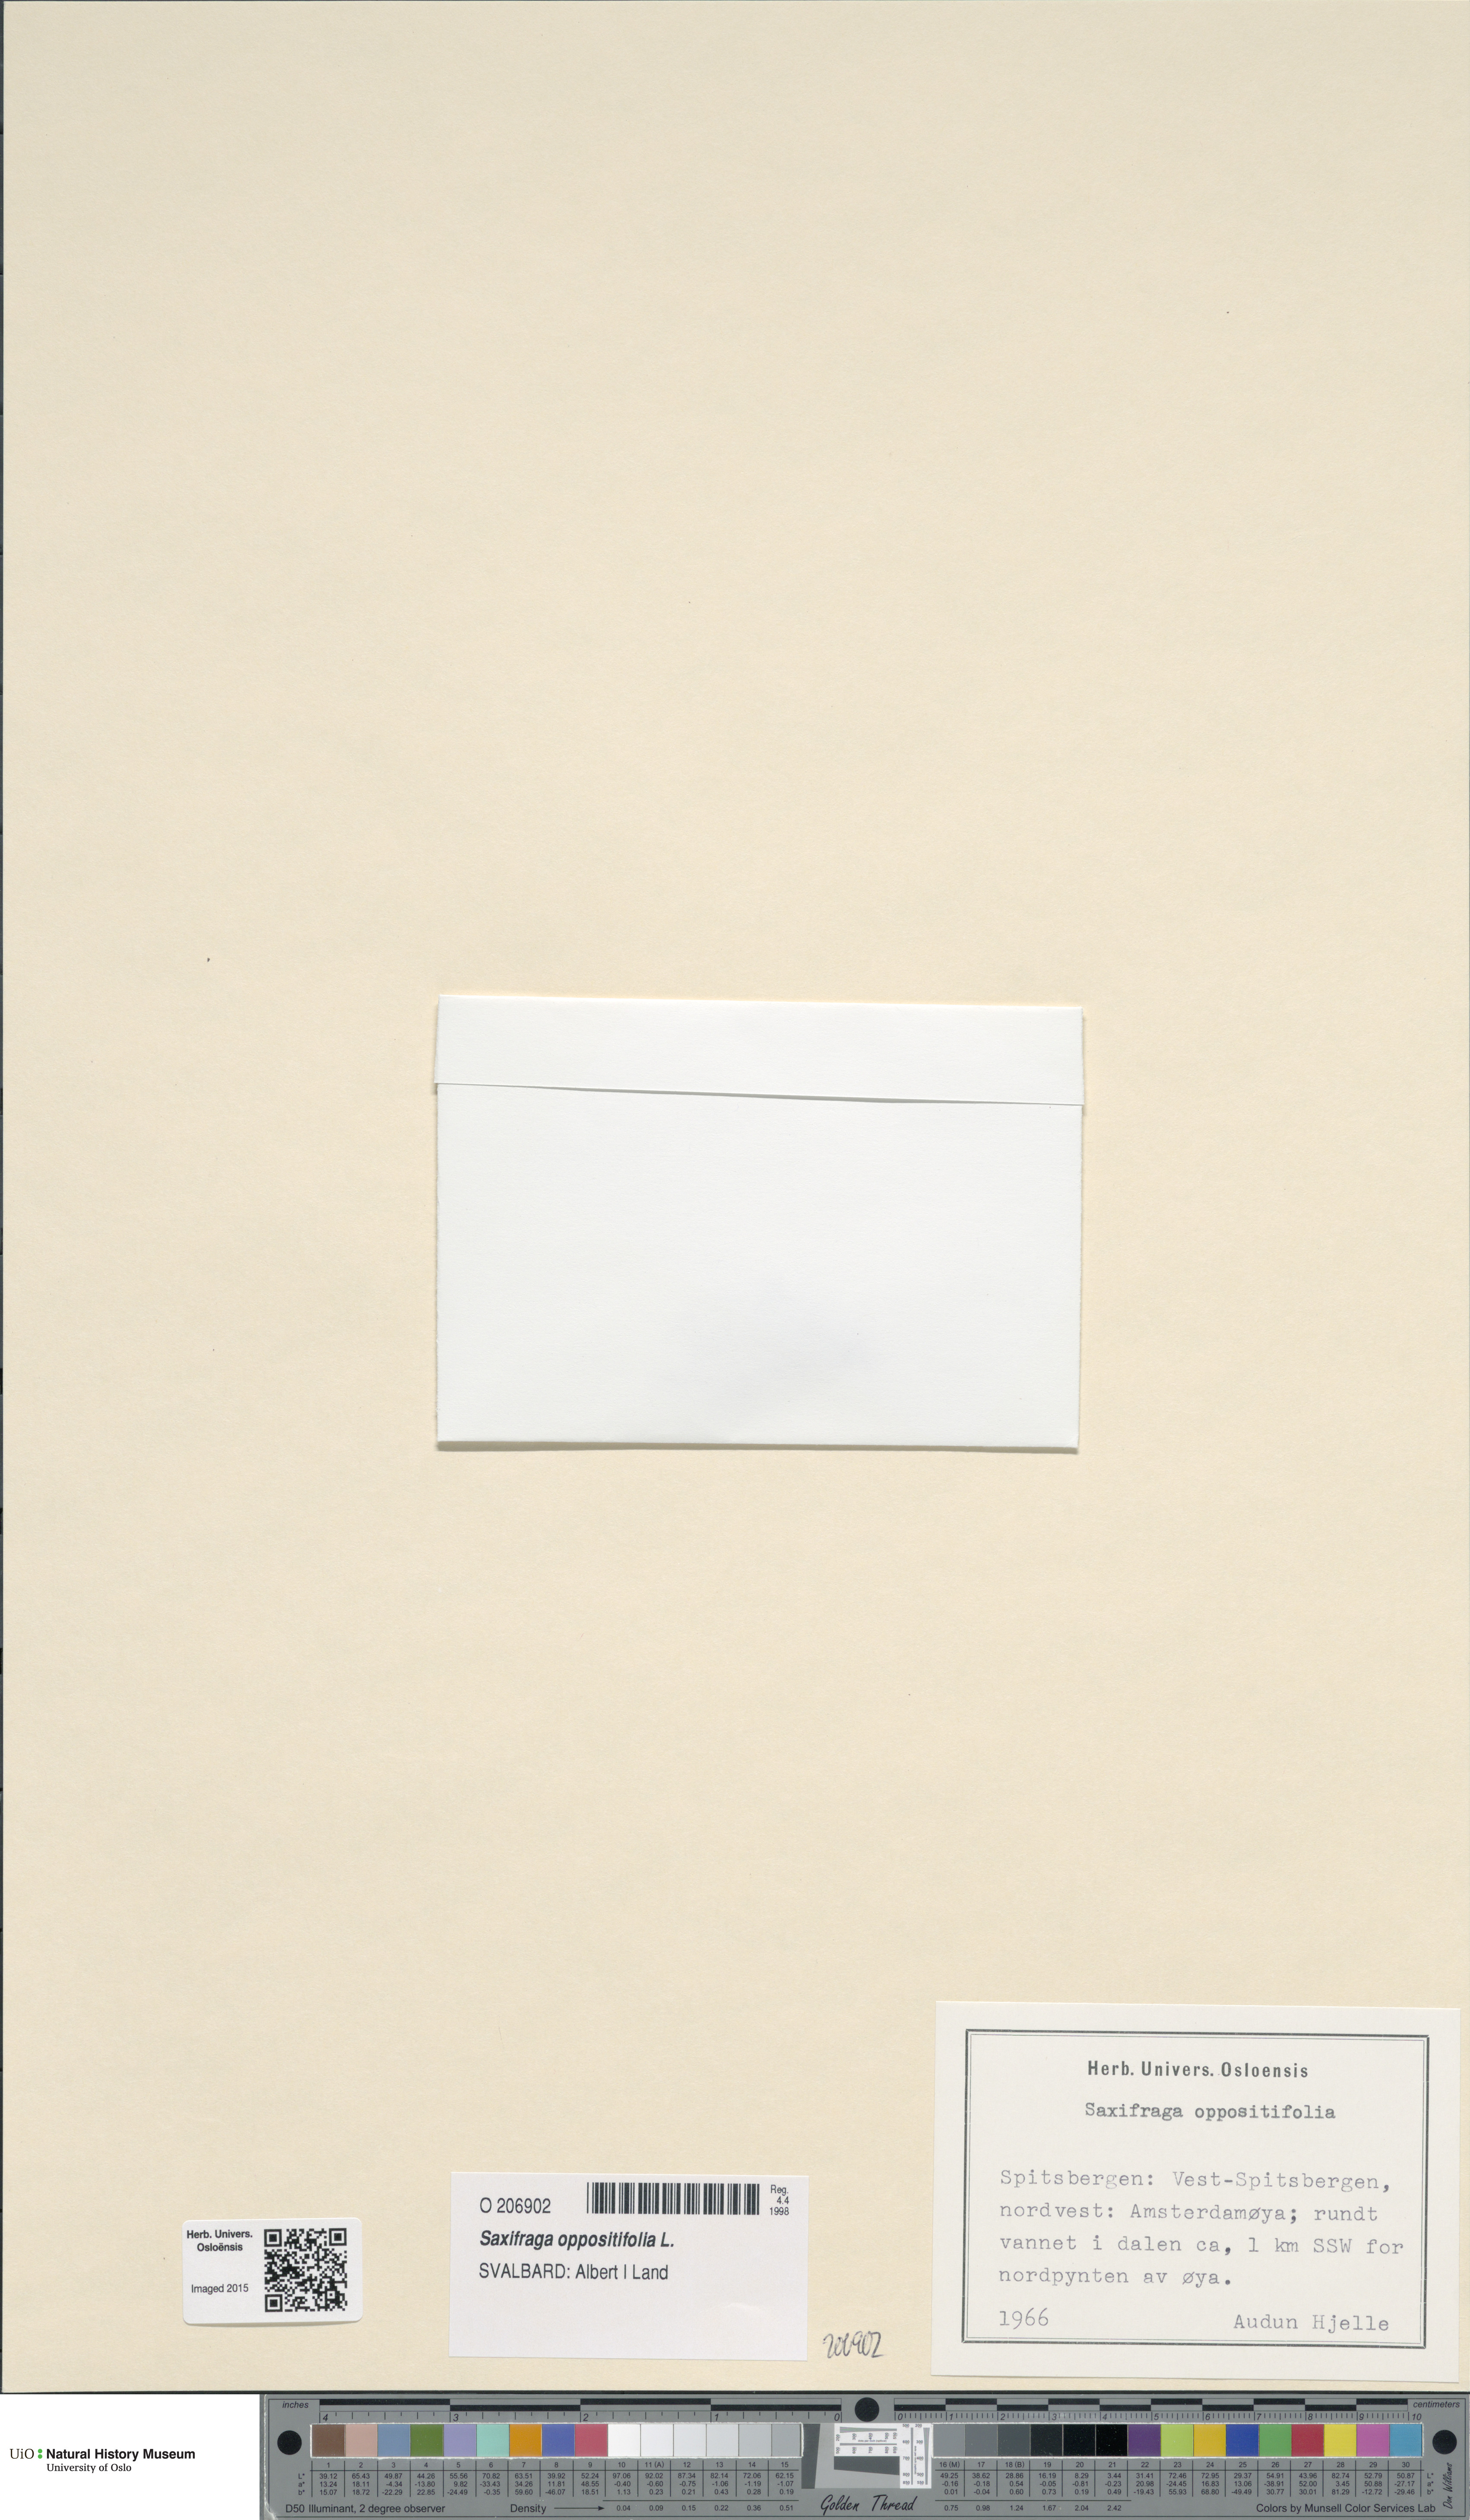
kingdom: Plantae
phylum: Tracheophyta
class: Magnoliopsida
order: Saxifragales
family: Saxifragaceae
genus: Saxifraga
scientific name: Saxifraga oppositifolia
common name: Purple saxifrage
